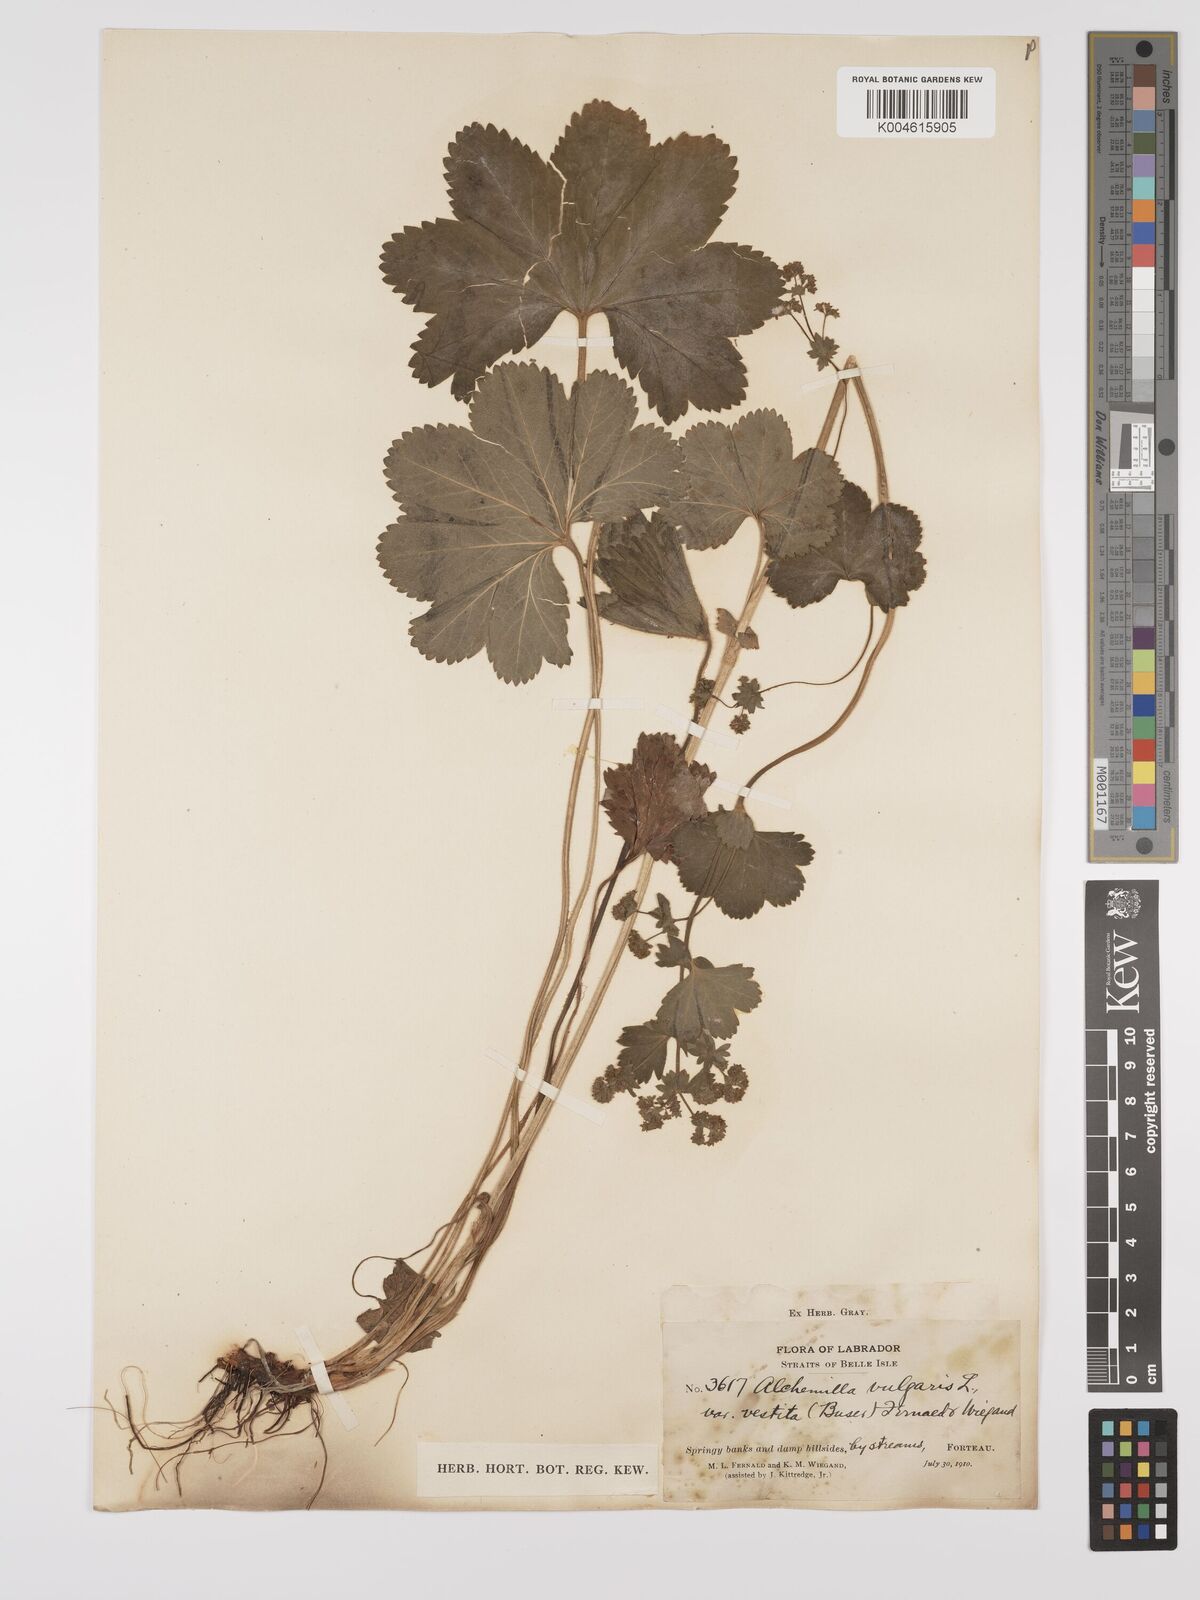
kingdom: Plantae
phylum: Tracheophyta
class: Magnoliopsida
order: Rosales
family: Rosaceae
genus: Alchemilla
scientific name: Alchemilla vulgaris
